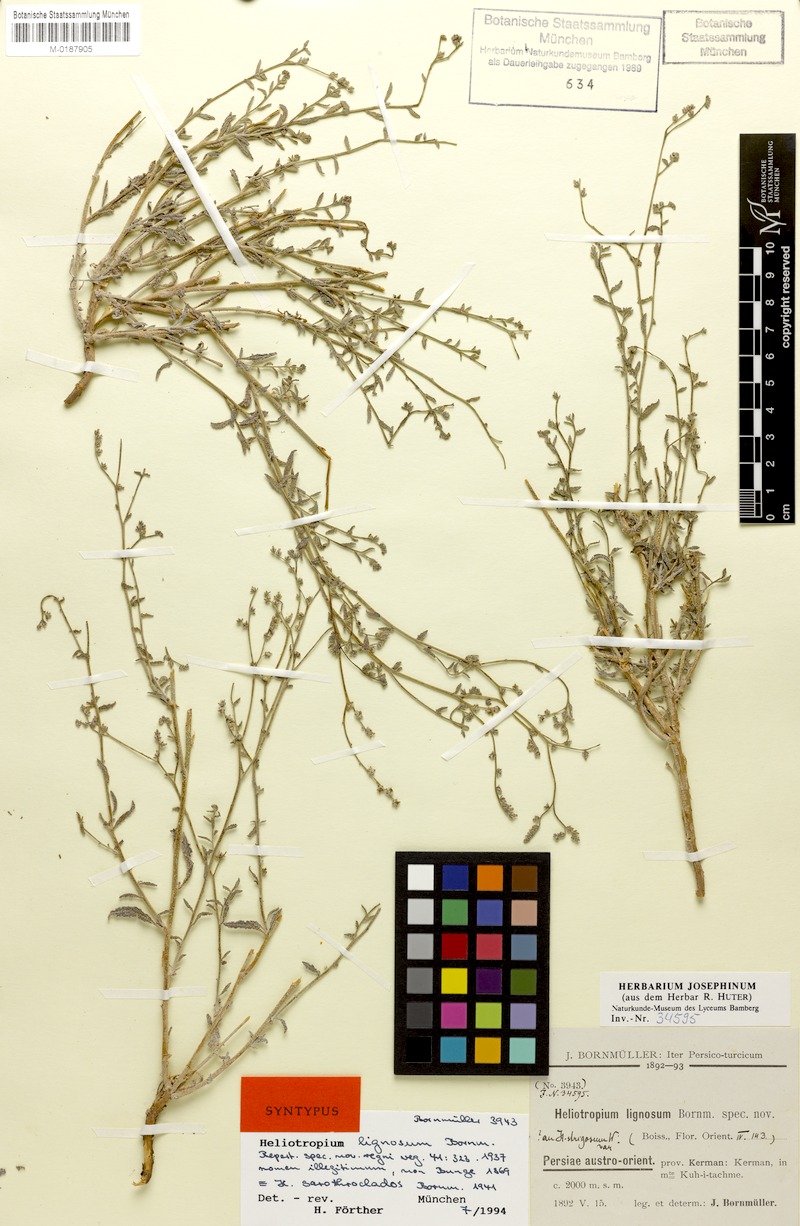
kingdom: Plantae
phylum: Tracheophyta
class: Magnoliopsida
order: Boraginales
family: Heliotropiaceae
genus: Heliotropium
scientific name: Heliotropium bacciferum
